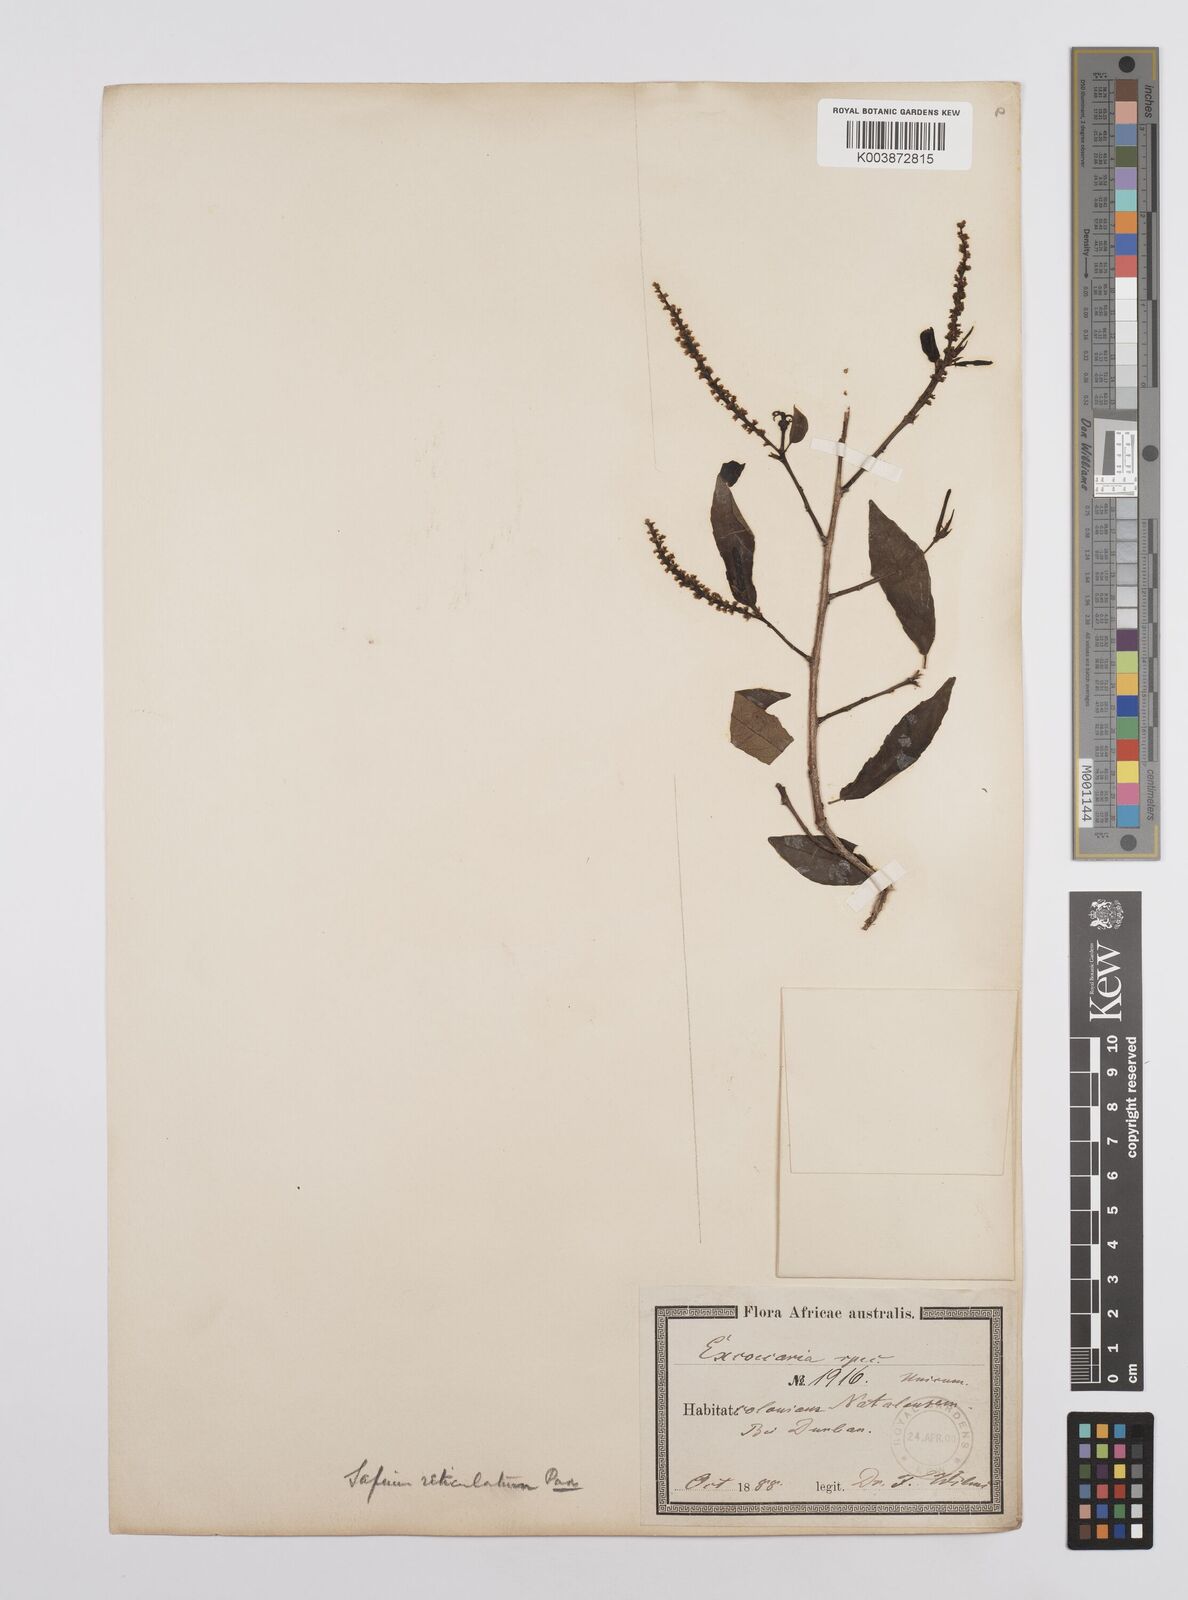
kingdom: Plantae
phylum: Tracheophyta
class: Magnoliopsida
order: Malpighiales
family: Euphorbiaceae
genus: Sclerocroton
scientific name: Sclerocroton integerrimus
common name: Duiker berry
